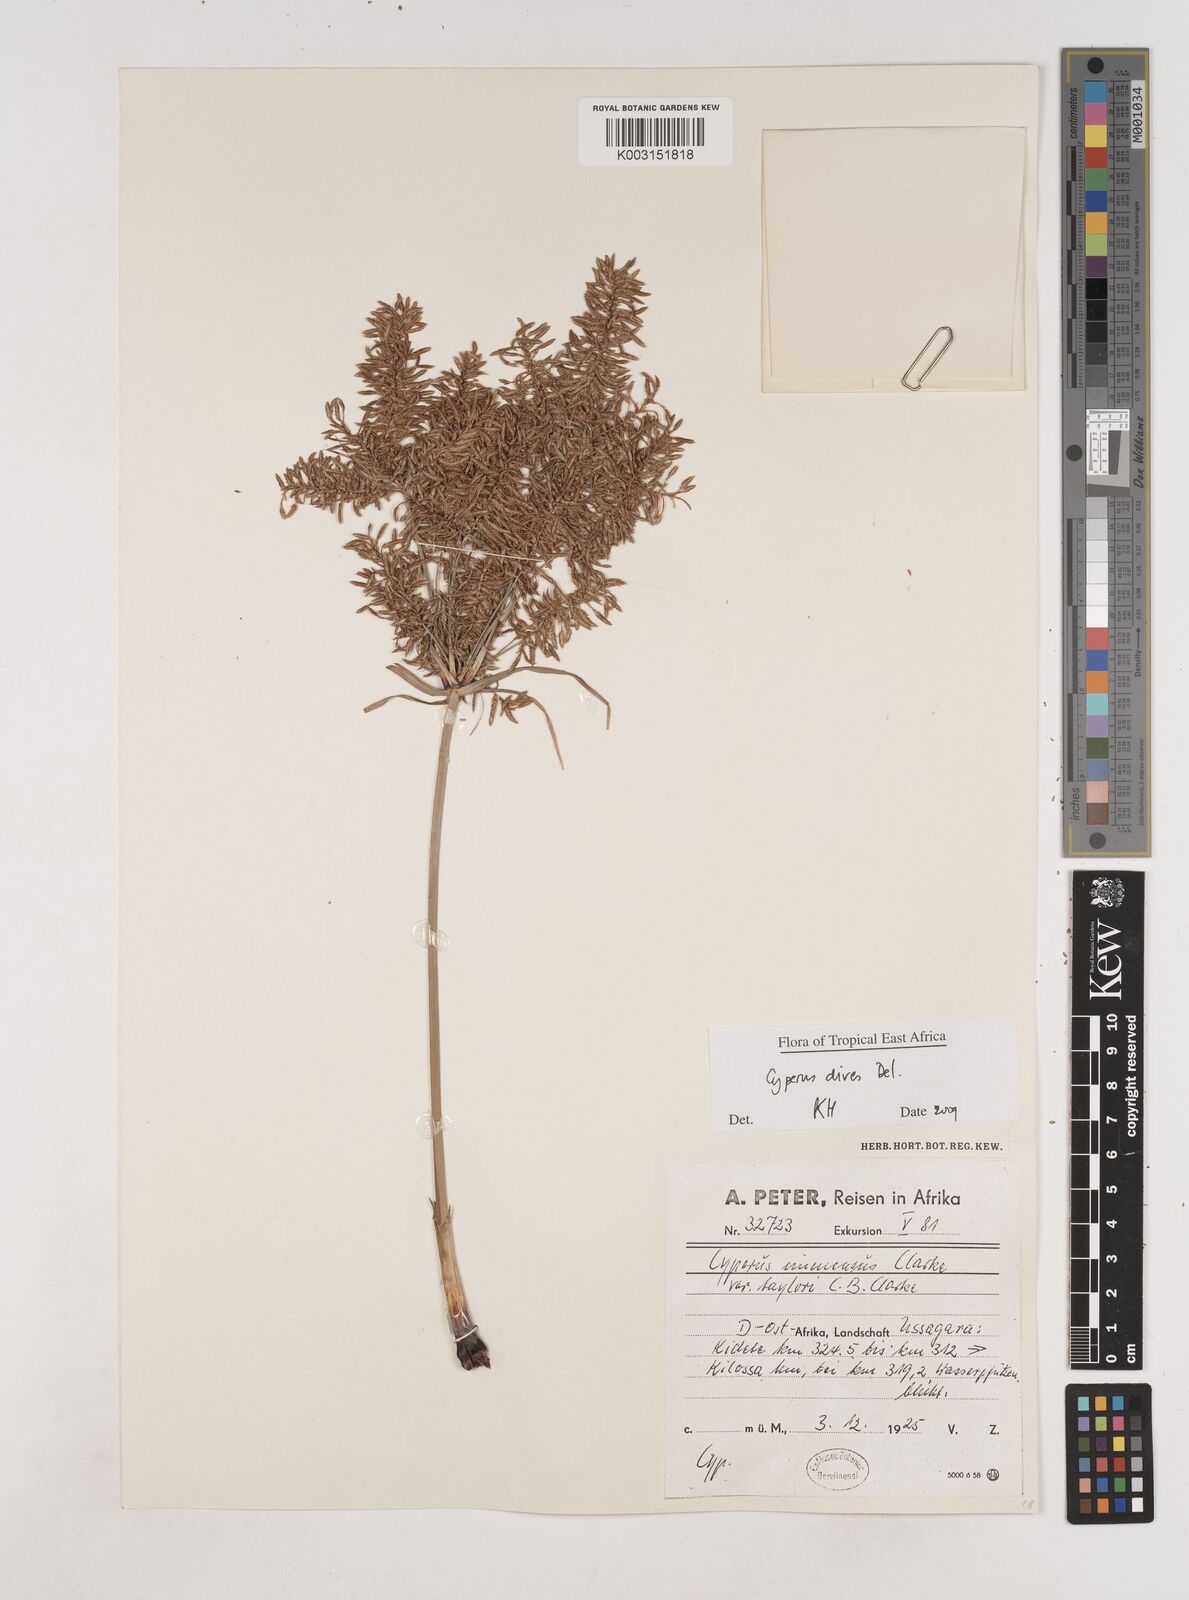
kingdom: Plantae
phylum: Tracheophyta
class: Liliopsida
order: Poales
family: Cyperaceae
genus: Cyperus
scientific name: Cyperus dives
